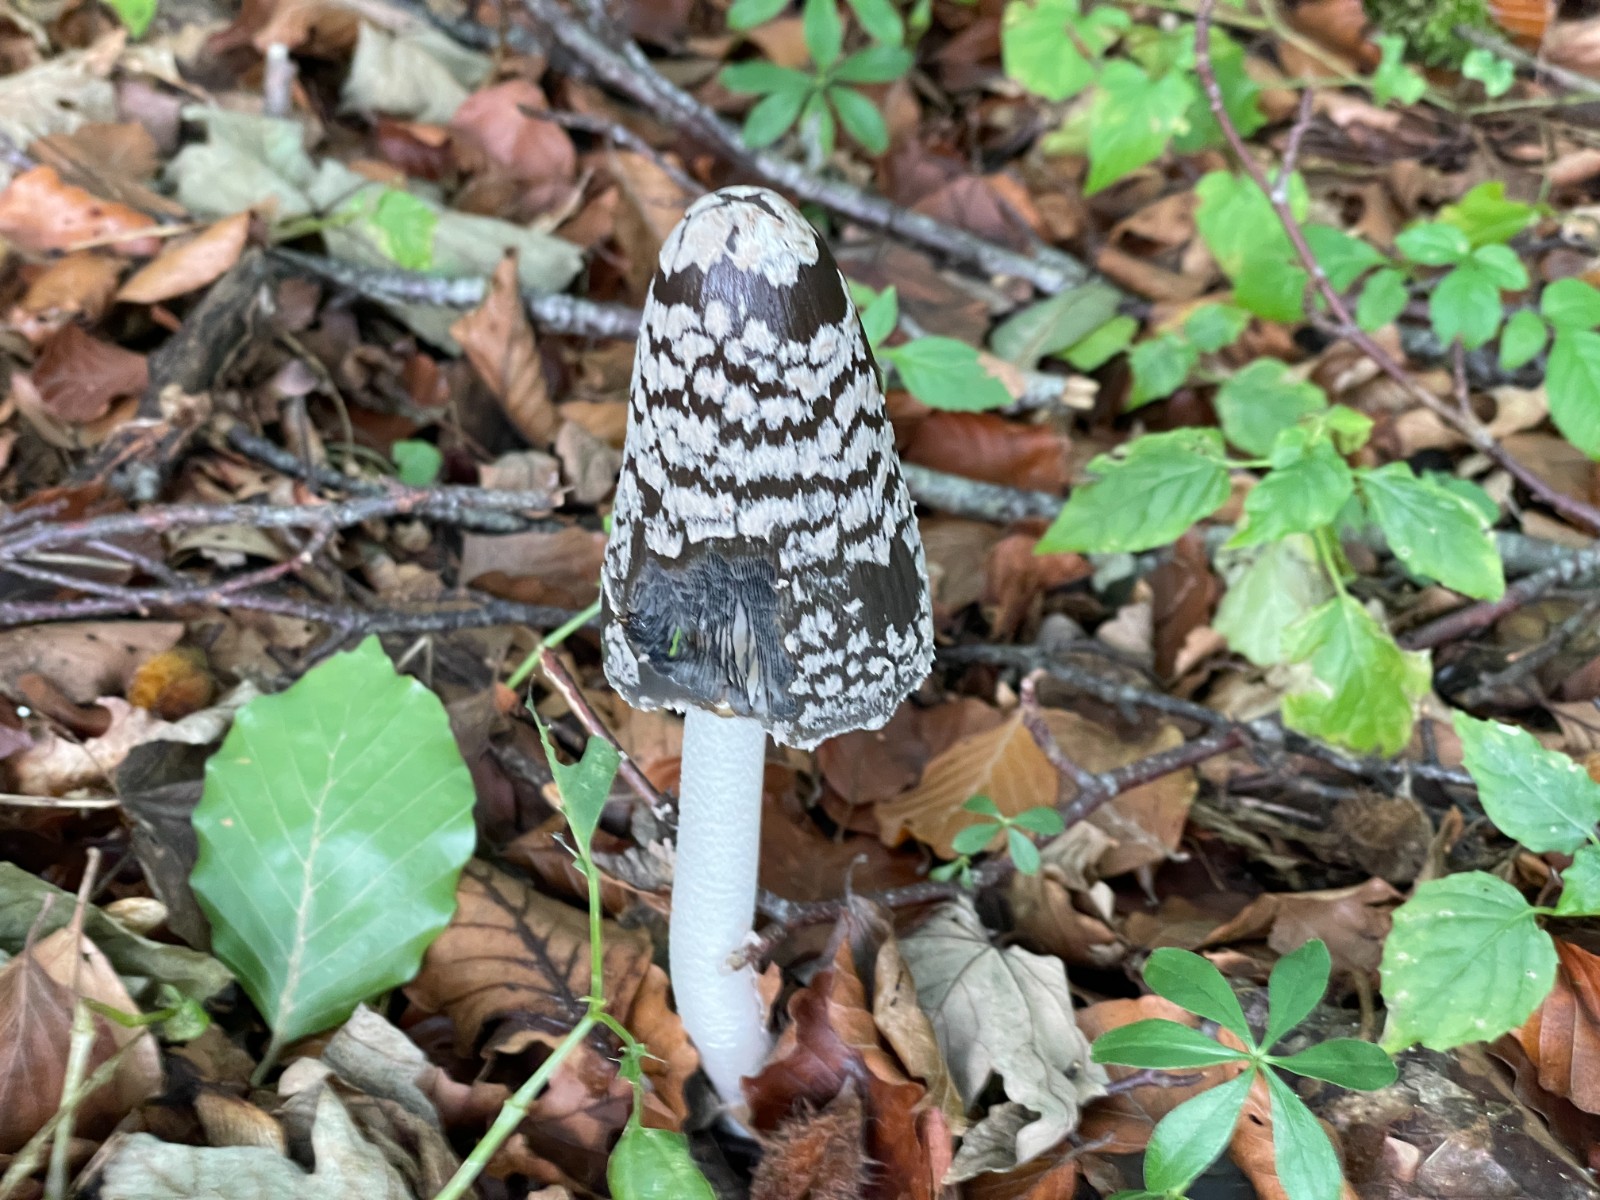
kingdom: Fungi
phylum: Basidiomycota
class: Agaricomycetes
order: Agaricales
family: Psathyrellaceae
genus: Coprinopsis
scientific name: Coprinopsis picacea
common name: skade-blækhat
